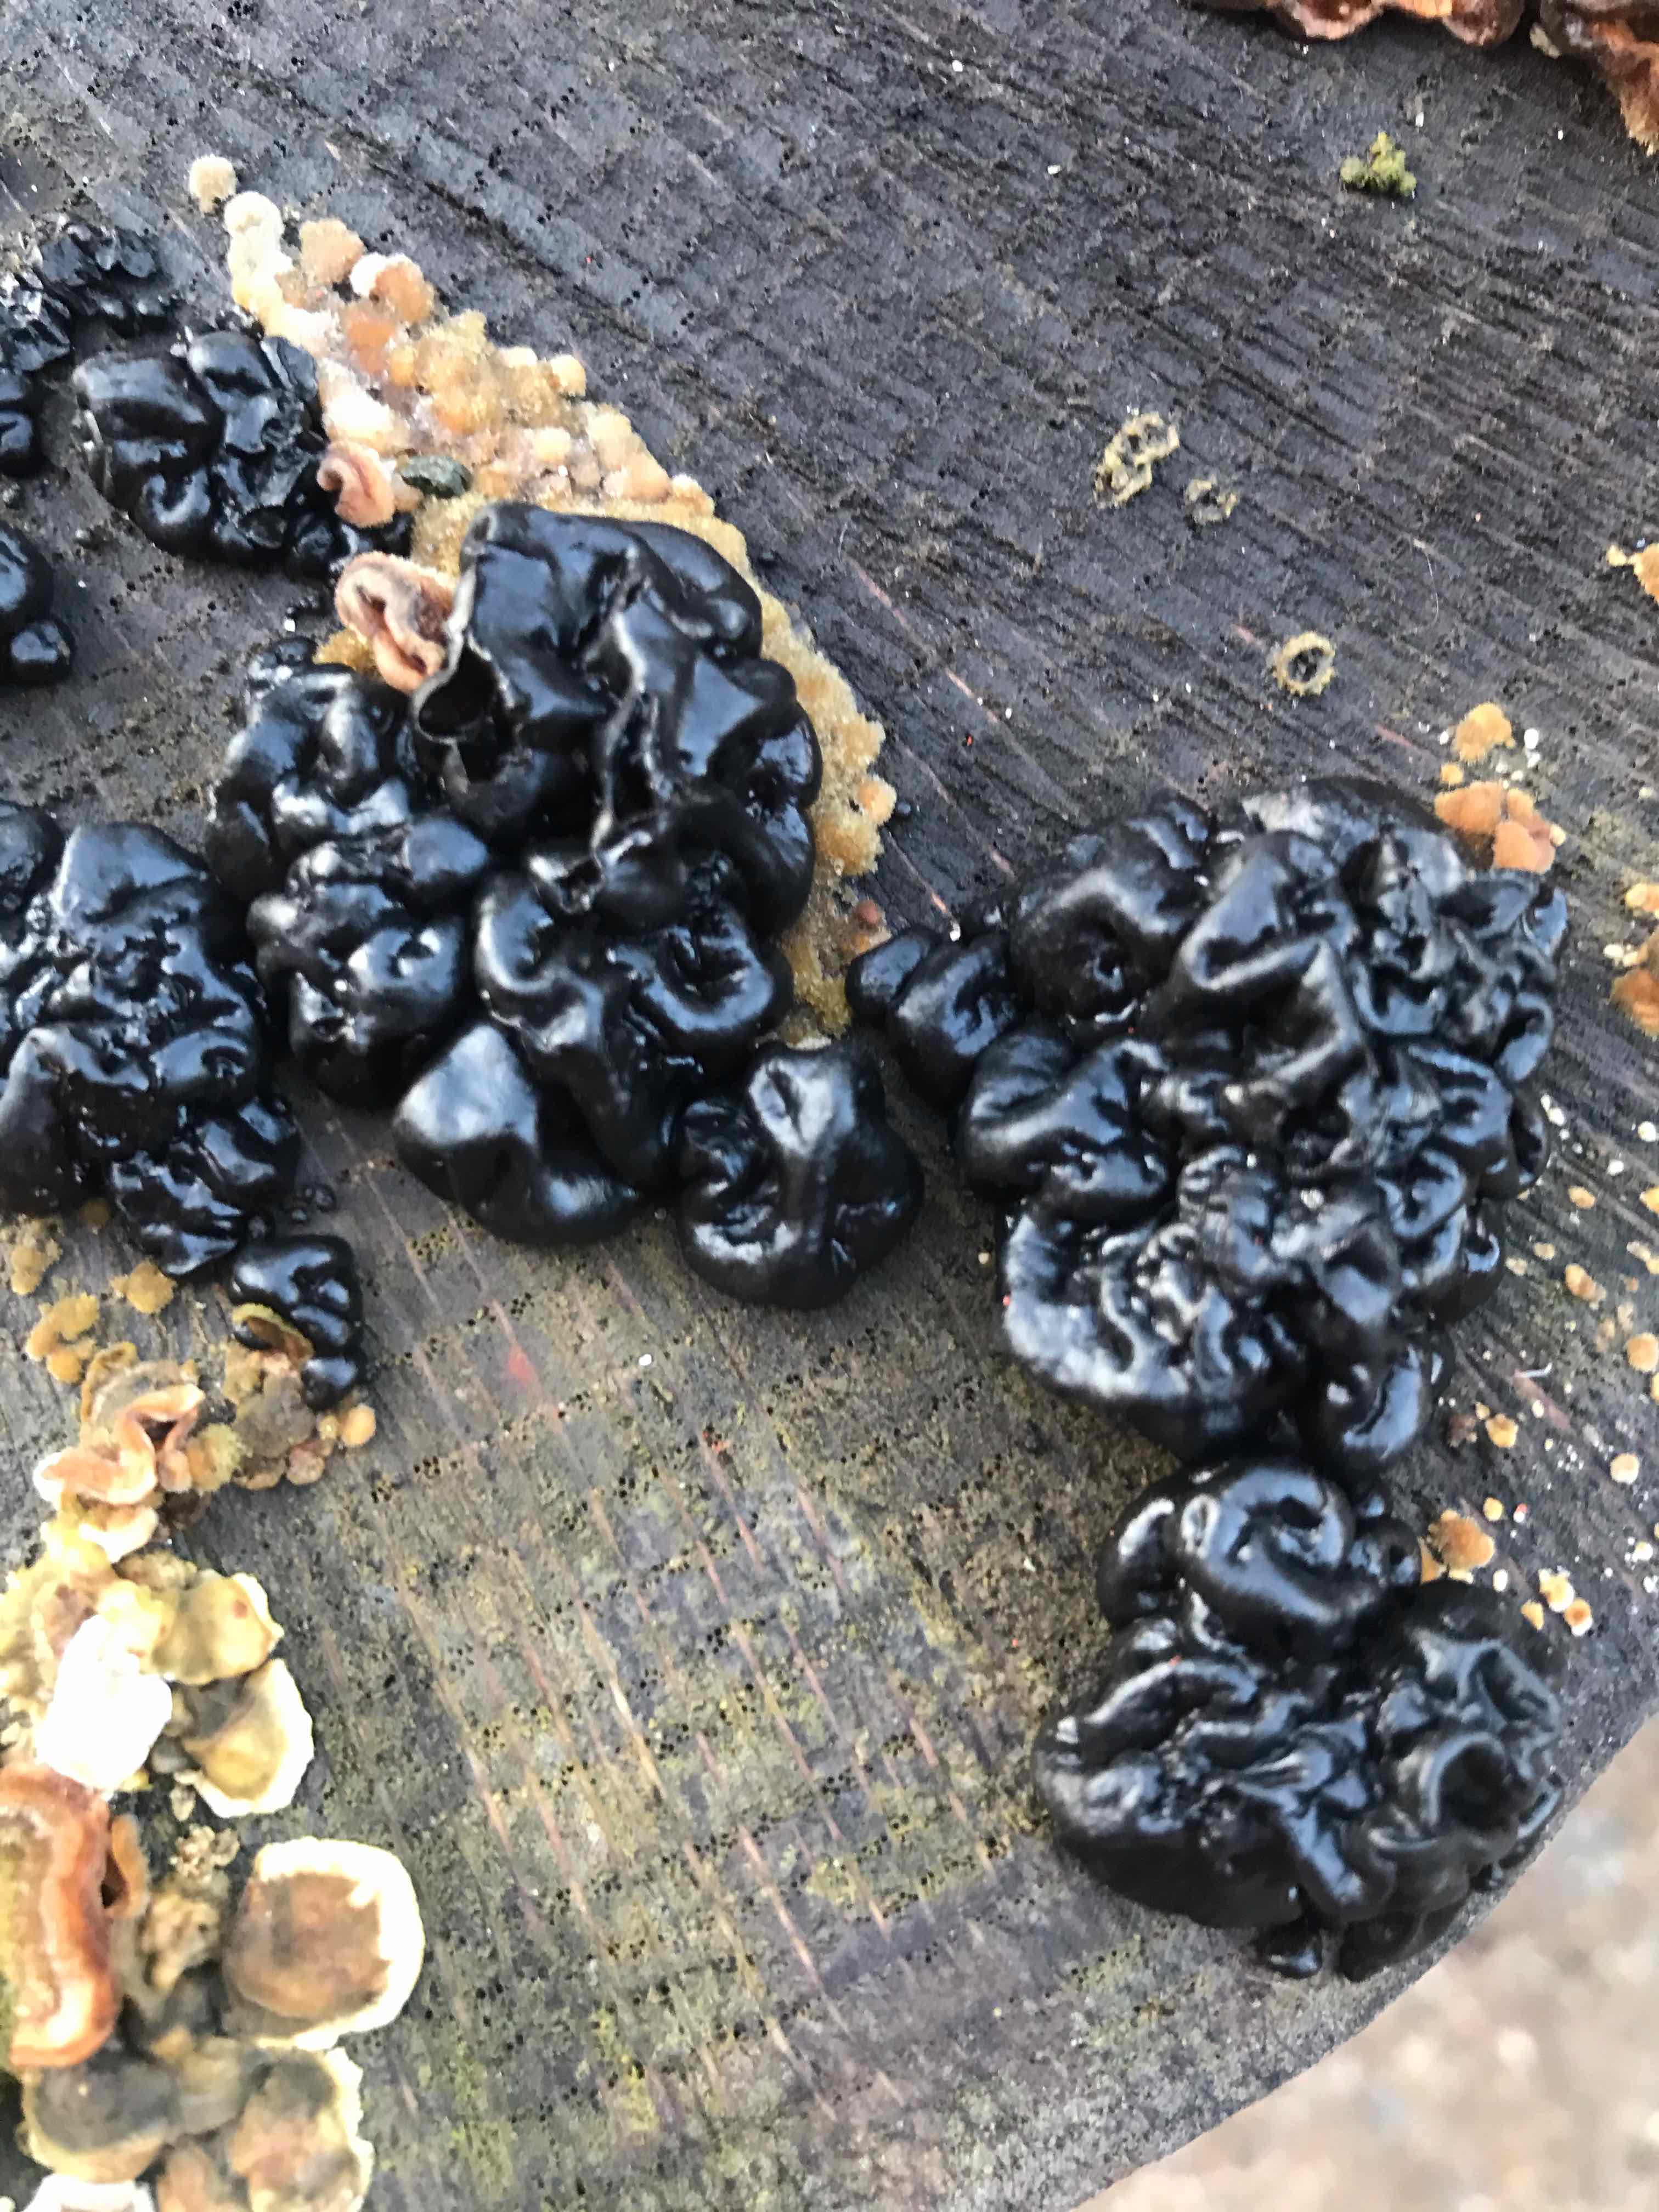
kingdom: Fungi
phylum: Basidiomycota
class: Agaricomycetes
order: Auriculariales
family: Auriculariaceae
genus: Exidia
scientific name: Exidia nigricans
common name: almindelig bævretop
